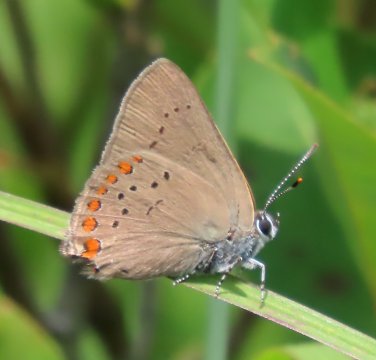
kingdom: Animalia
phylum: Arthropoda
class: Insecta
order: Lepidoptera
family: Lycaenidae
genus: Harkenclenus
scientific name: Harkenclenus titus
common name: Coral Hairstreak
